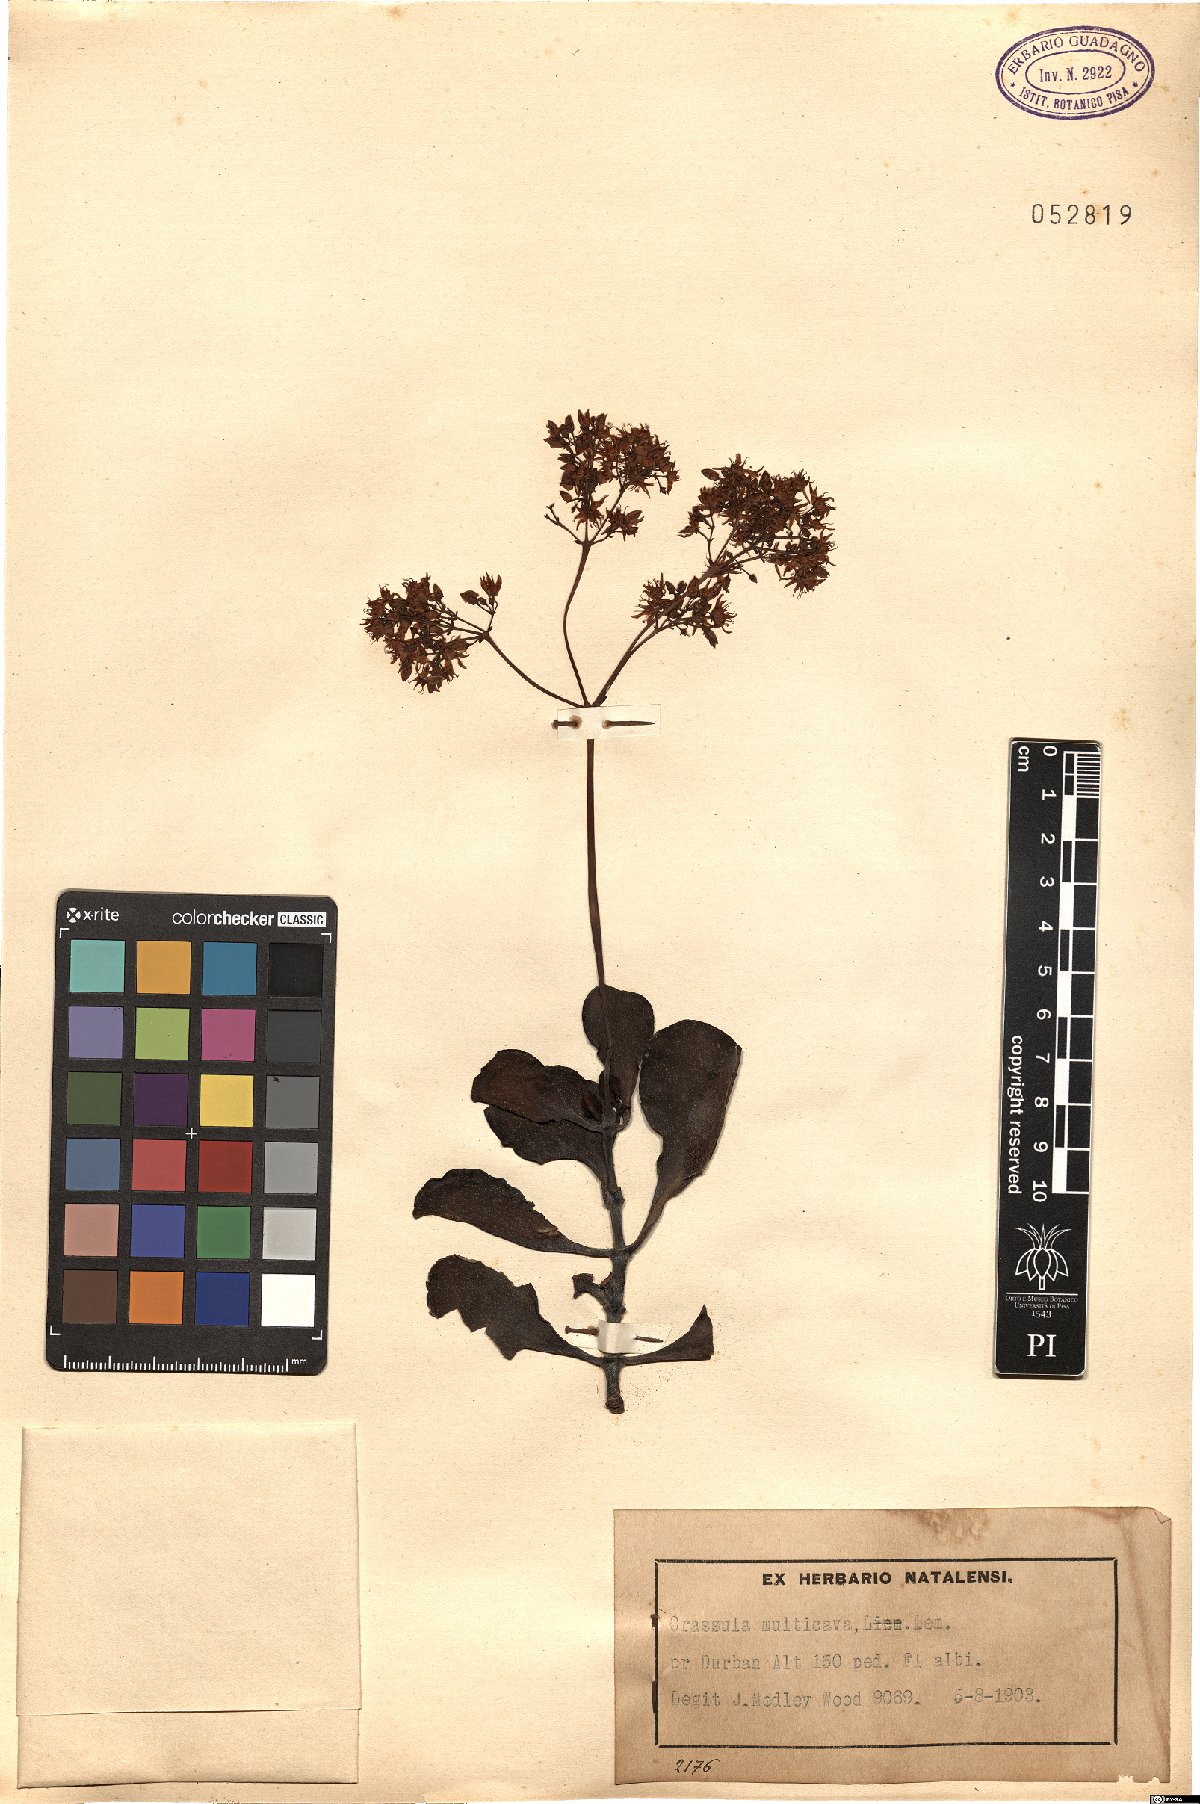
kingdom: Plantae
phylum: Tracheophyta
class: Magnoliopsida
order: Saxifragales
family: Crassulaceae
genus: Crassula
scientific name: Crassula multicava
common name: Cape province pygmyweed
